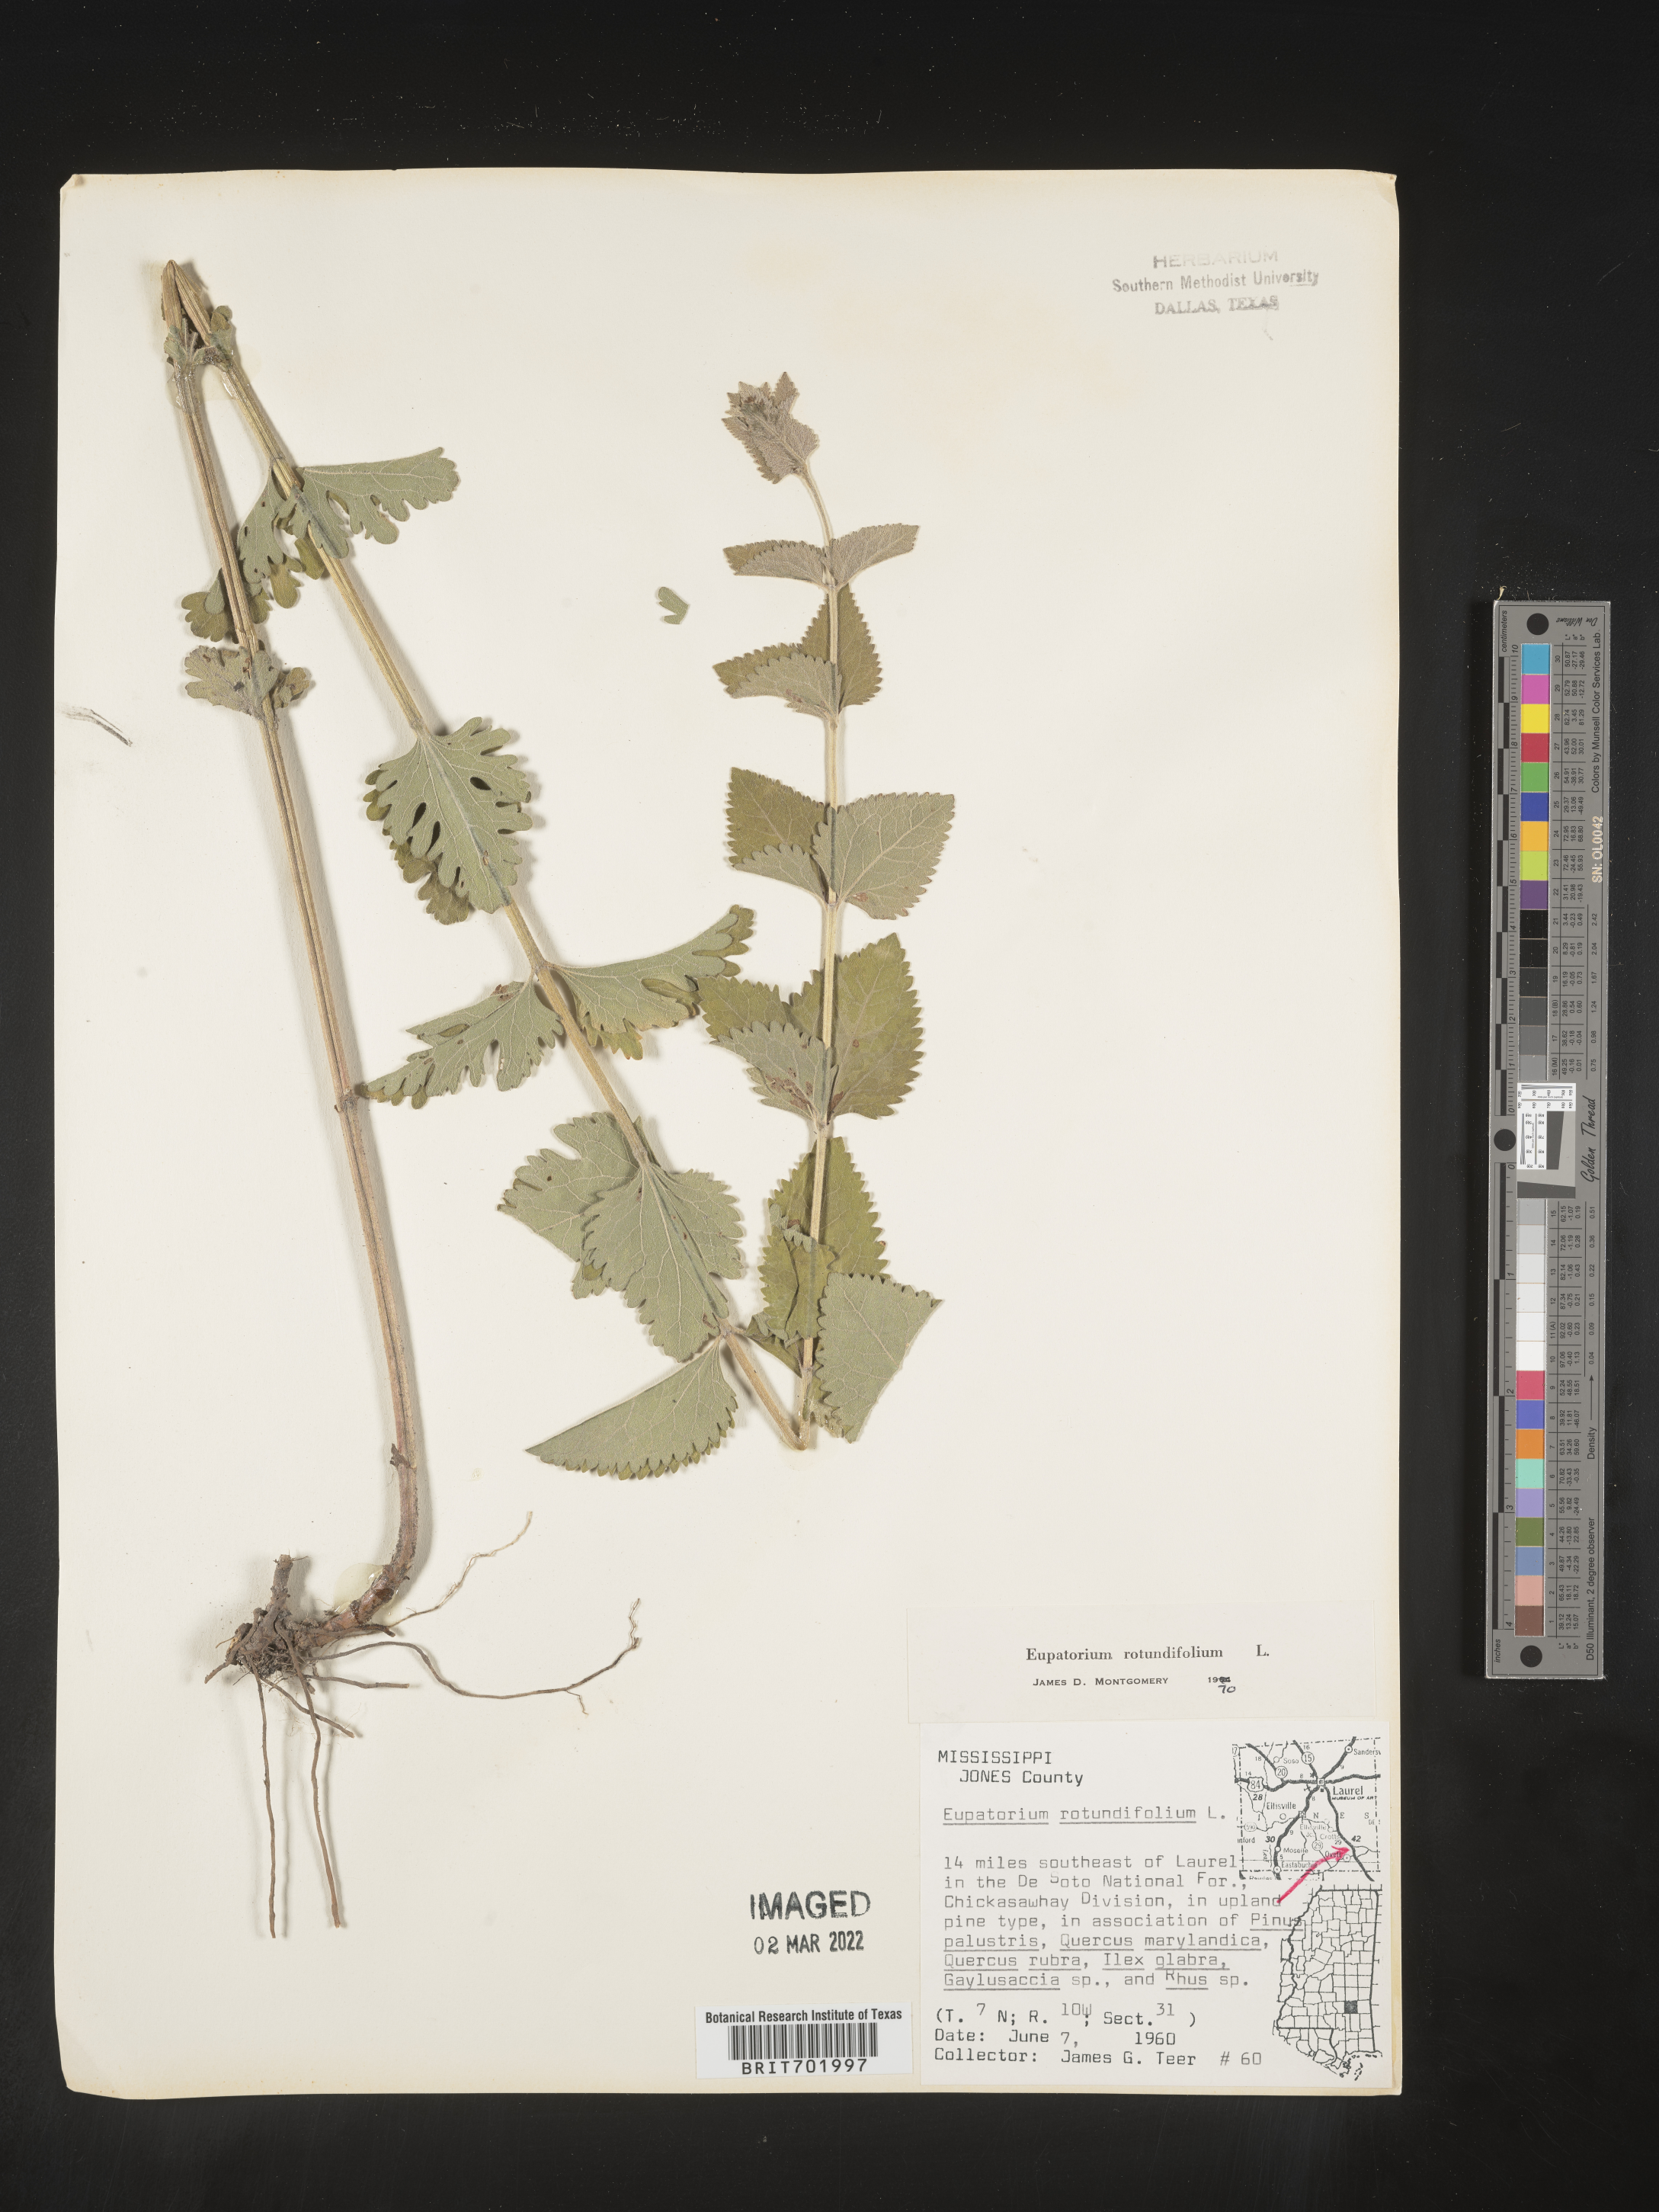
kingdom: Plantae
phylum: Tracheophyta
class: Magnoliopsida
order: Asterales
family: Asteraceae
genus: Eupatorium
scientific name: Eupatorium rotundifolium
